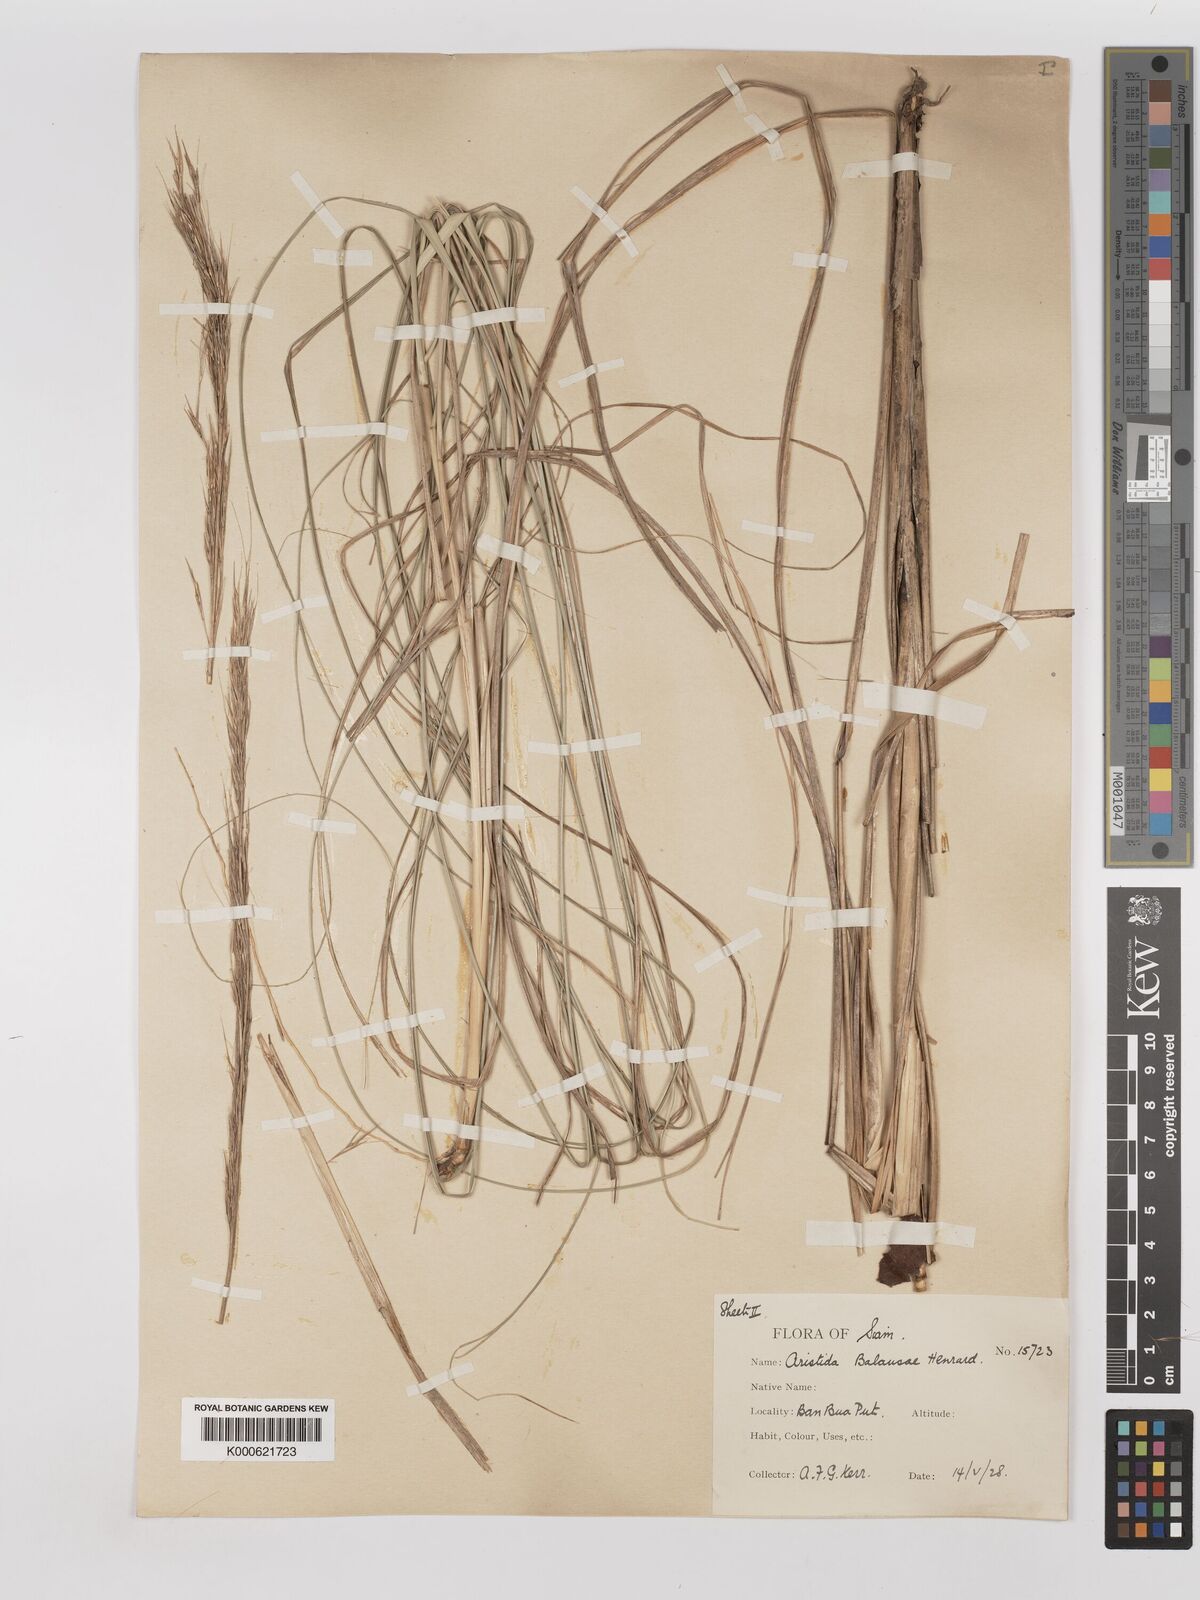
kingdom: Plantae
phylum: Tracheophyta
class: Liliopsida
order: Poales
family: Poaceae
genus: Aristida
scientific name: Aristida balansae
